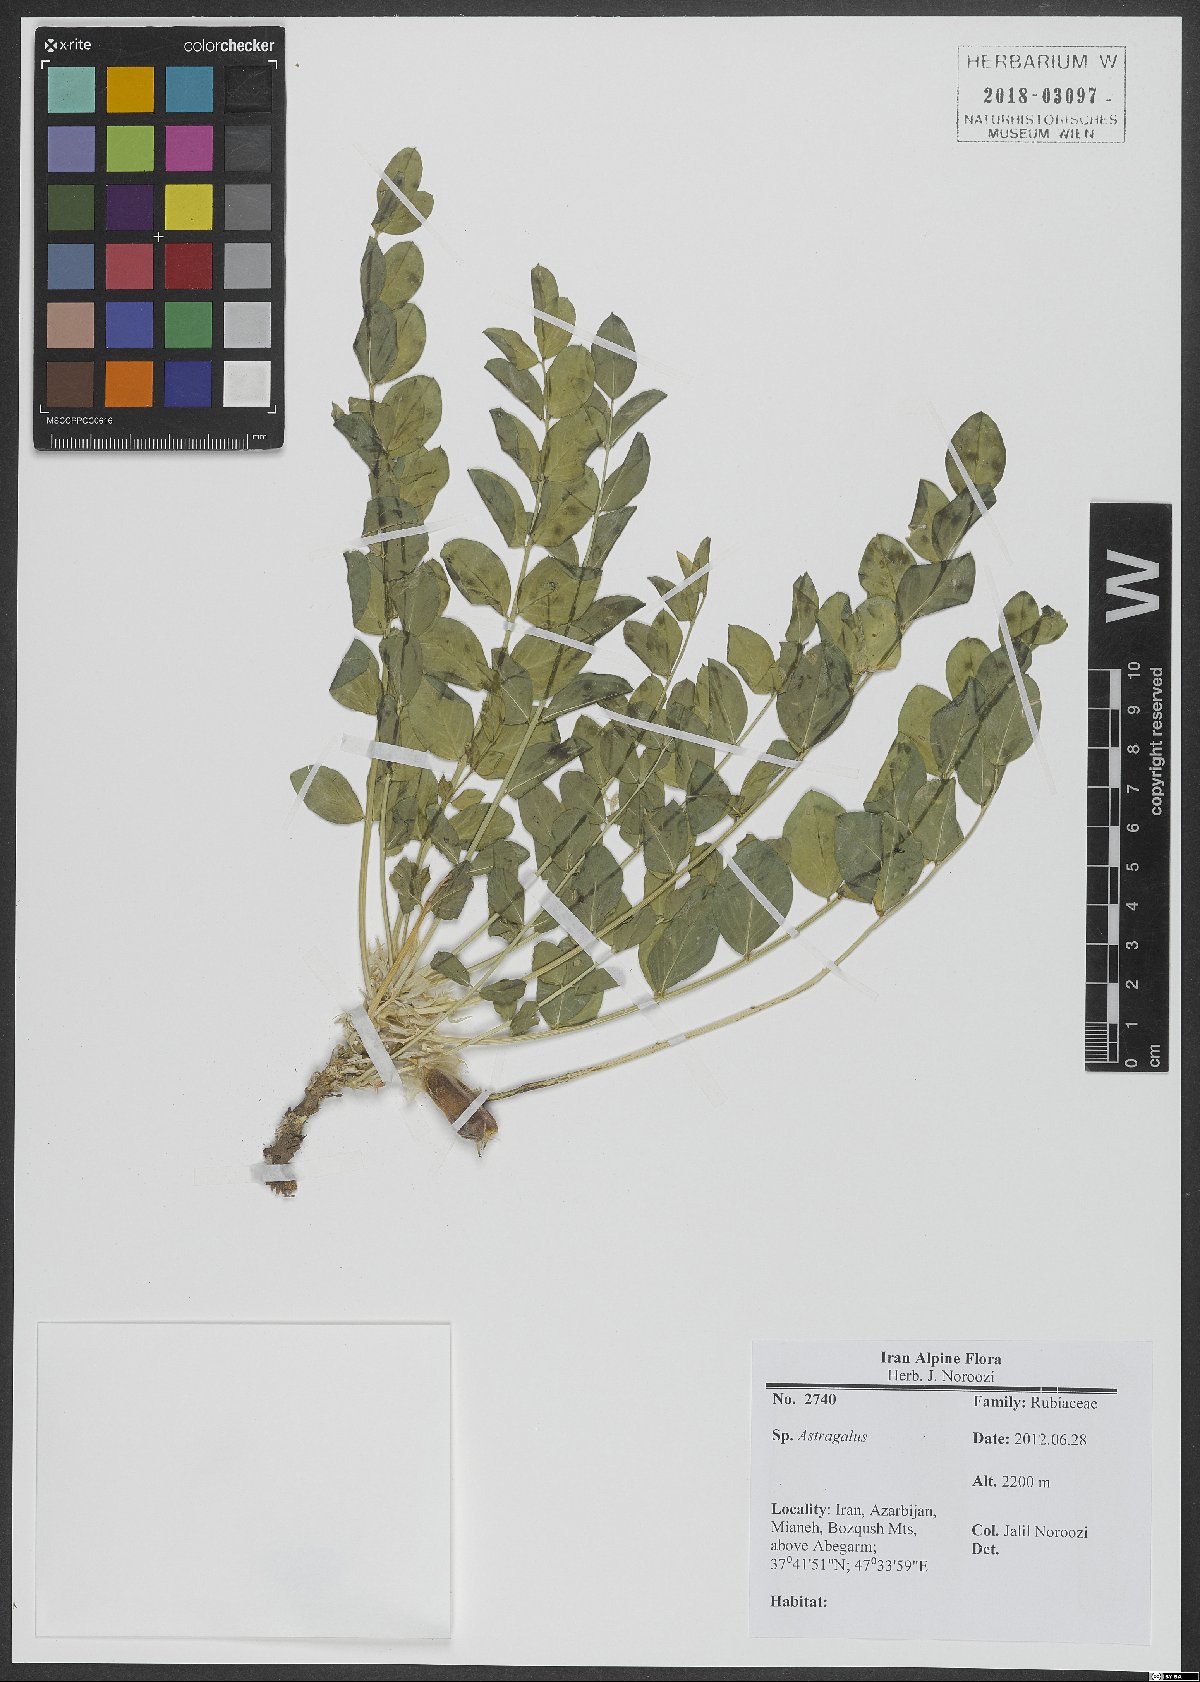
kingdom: Plantae
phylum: Tracheophyta
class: Magnoliopsida
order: Fabales
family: Fabaceae
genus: Astragalus
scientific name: Astragalus
